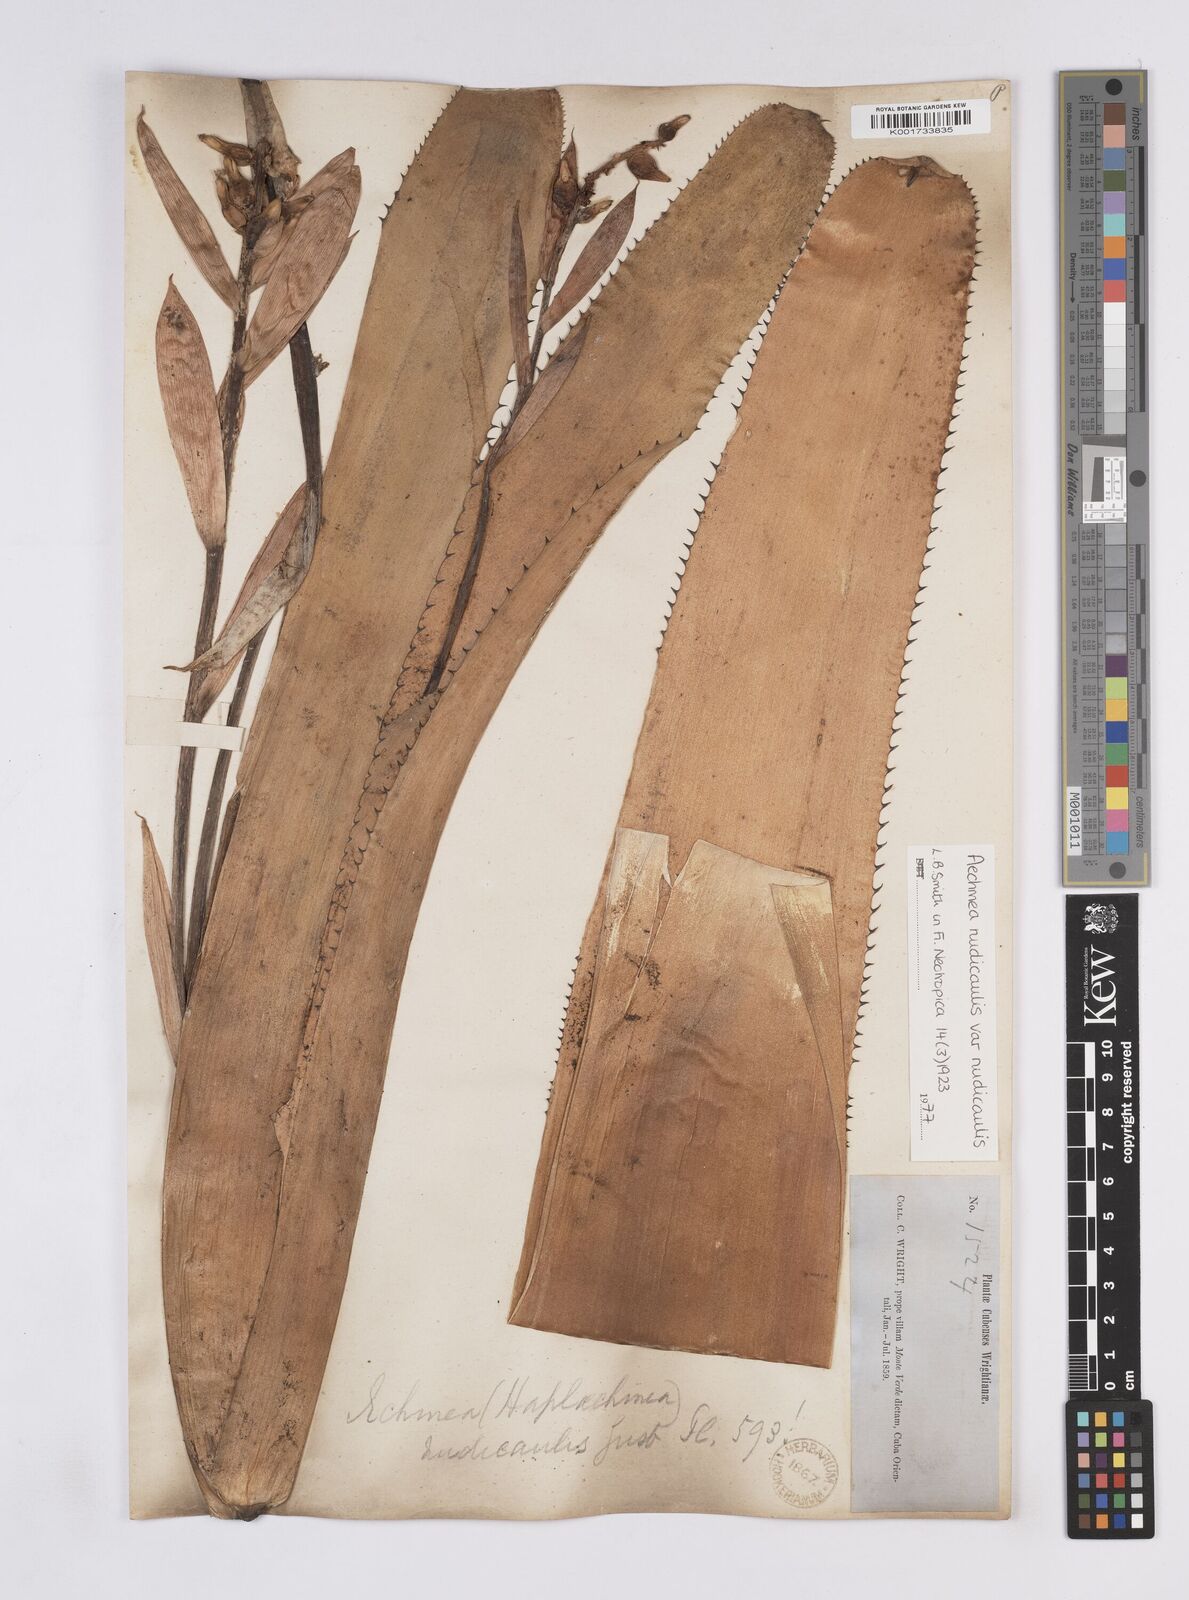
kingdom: Plantae
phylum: Tracheophyta
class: Liliopsida
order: Poales
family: Bromeliaceae
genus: Aechmea
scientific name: Aechmea nudicaulis
